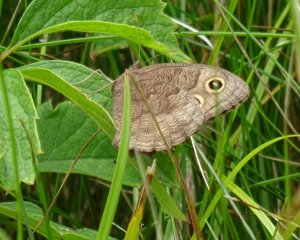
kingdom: Animalia
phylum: Arthropoda
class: Insecta
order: Lepidoptera
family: Nymphalidae
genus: Cercyonis
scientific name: Cercyonis pegala
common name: Common Wood-Nymph
